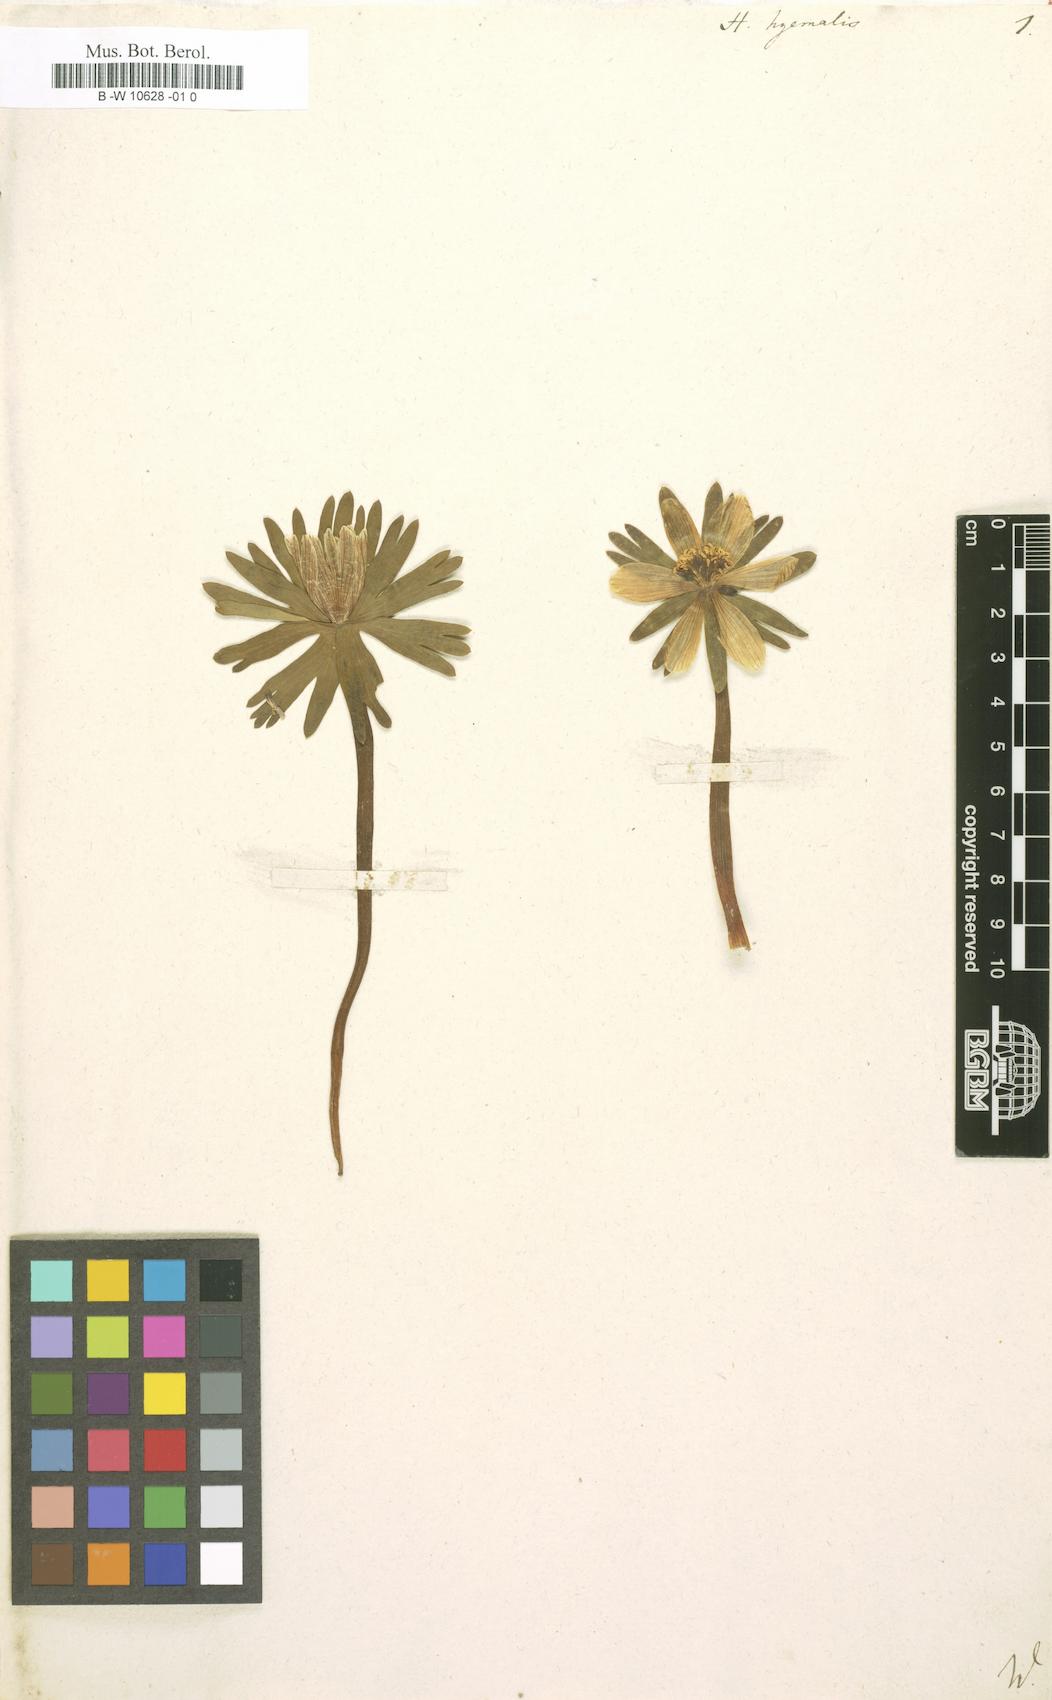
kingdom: Plantae
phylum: Tracheophyta
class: Magnoliopsida
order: Ranunculales
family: Ranunculaceae
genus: Eranthis
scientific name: Eranthis hyemalis
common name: Winter aconite
